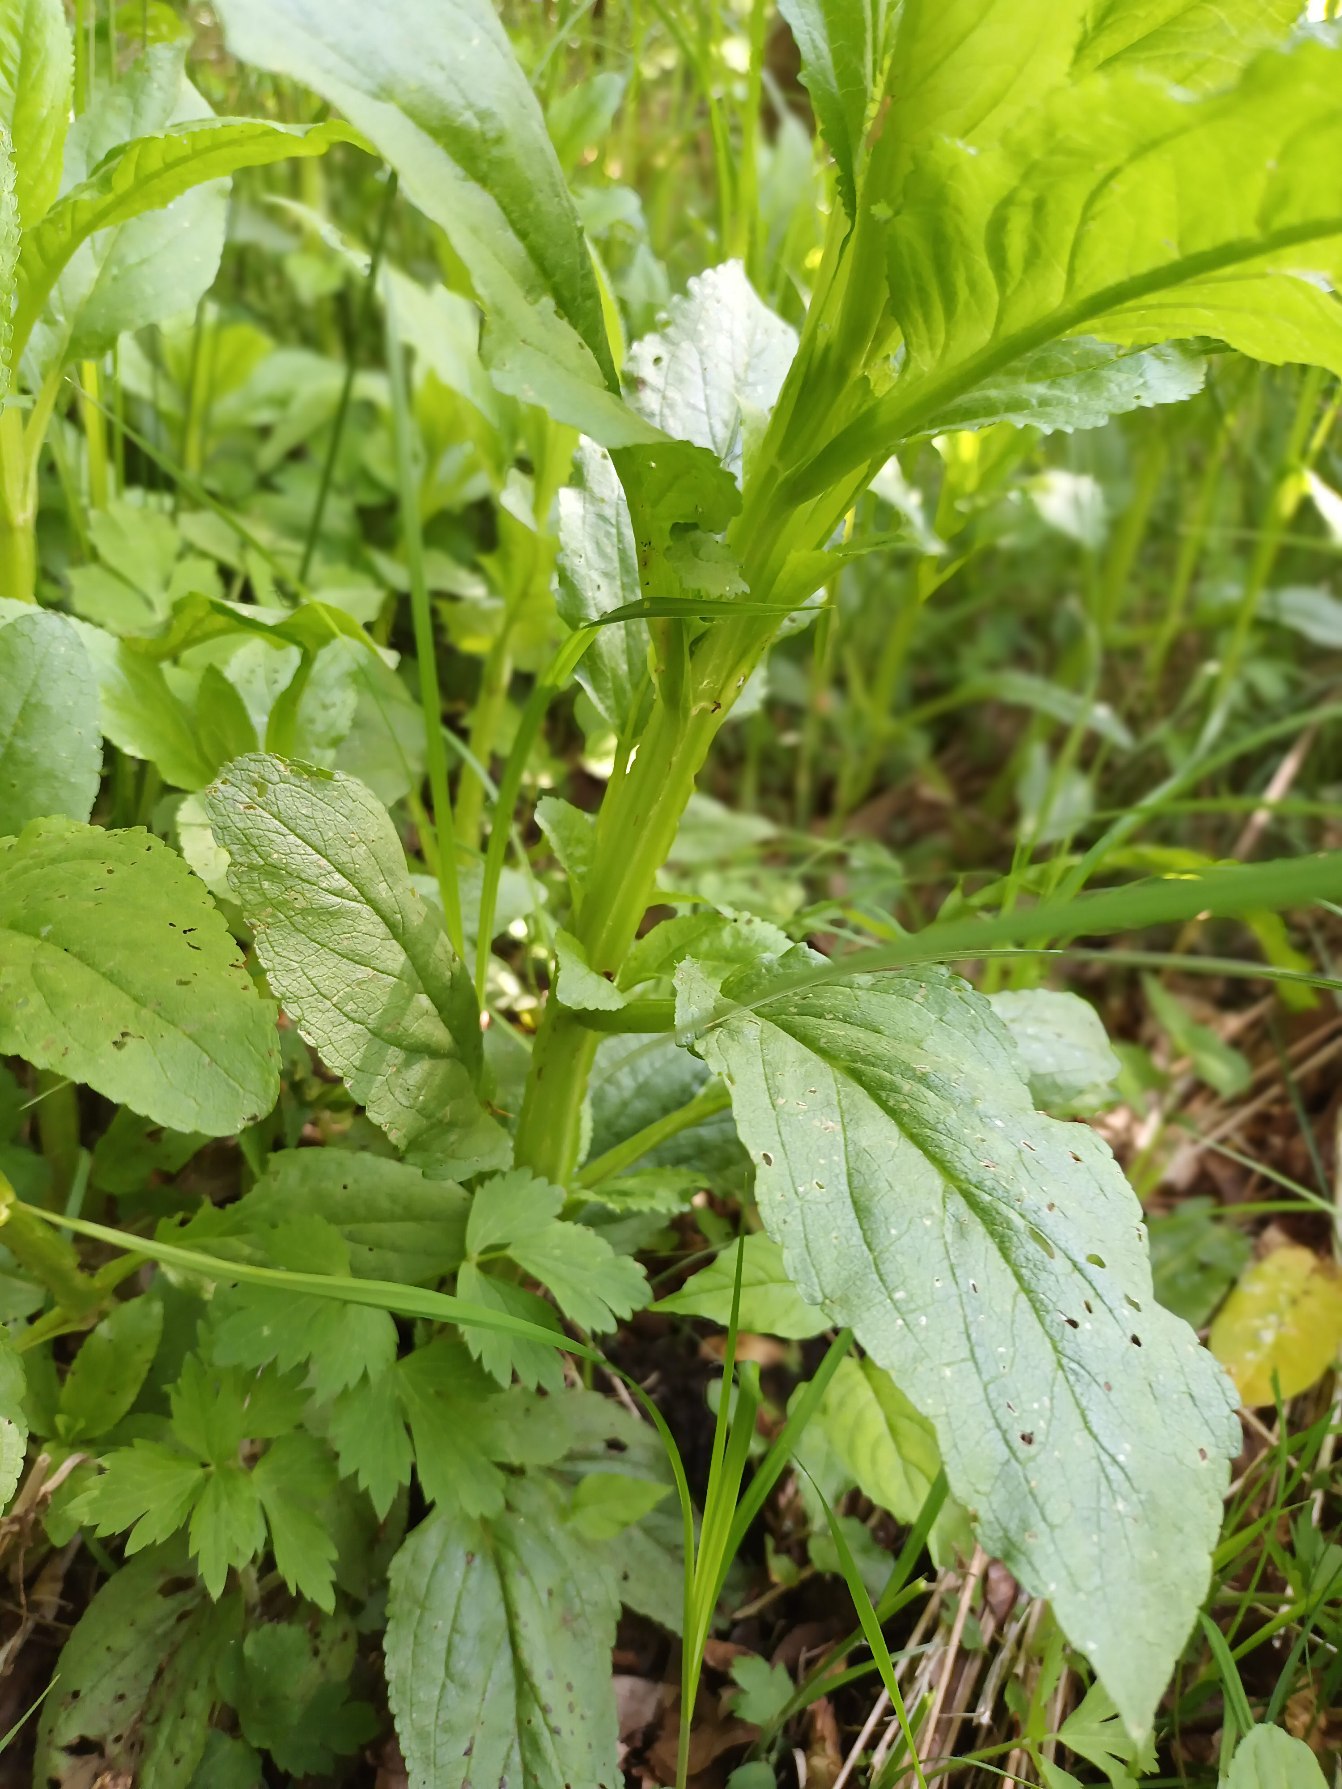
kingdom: Plantae
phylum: Tracheophyta
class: Magnoliopsida
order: Lamiales
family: Scrophulariaceae
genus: Scrophularia
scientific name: Scrophularia neesii
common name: Rundtakket brunrod
